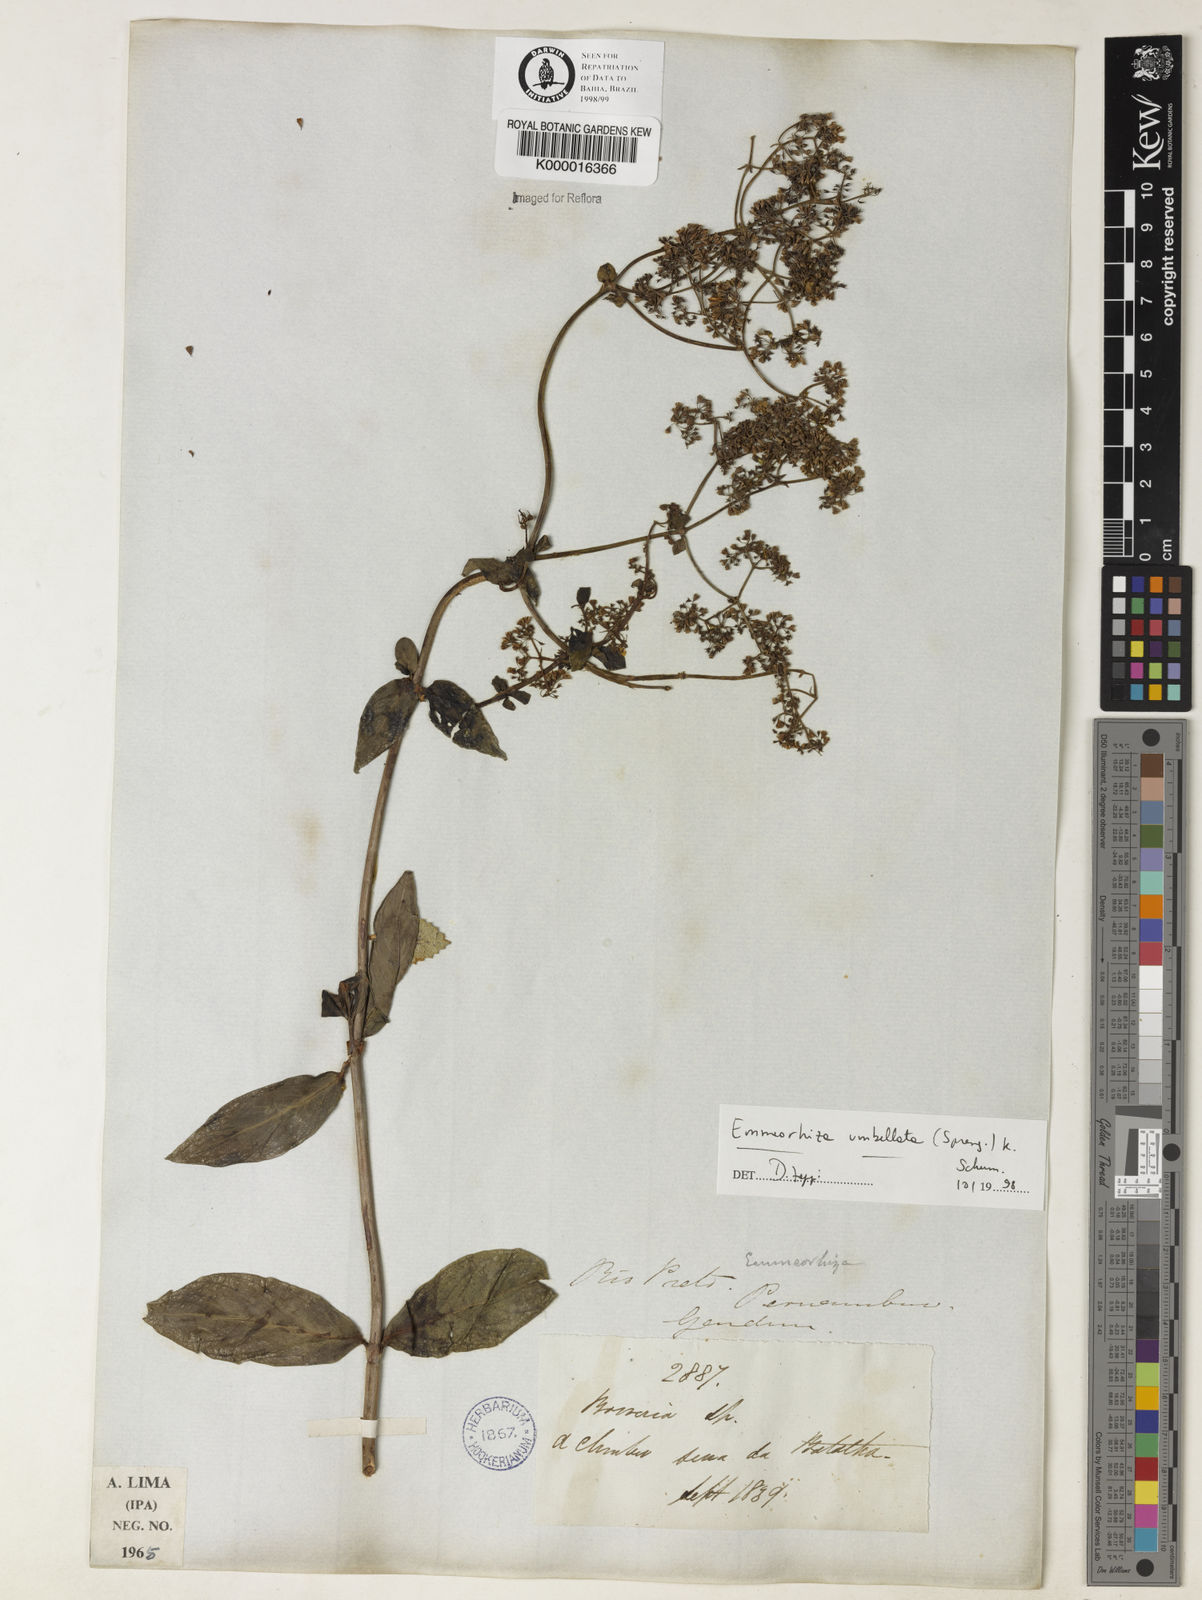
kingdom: Plantae
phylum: Tracheophyta
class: Magnoliopsida
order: Gentianales
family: Rubiaceae
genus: Emmeorhiza
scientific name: Emmeorhiza umbellata
